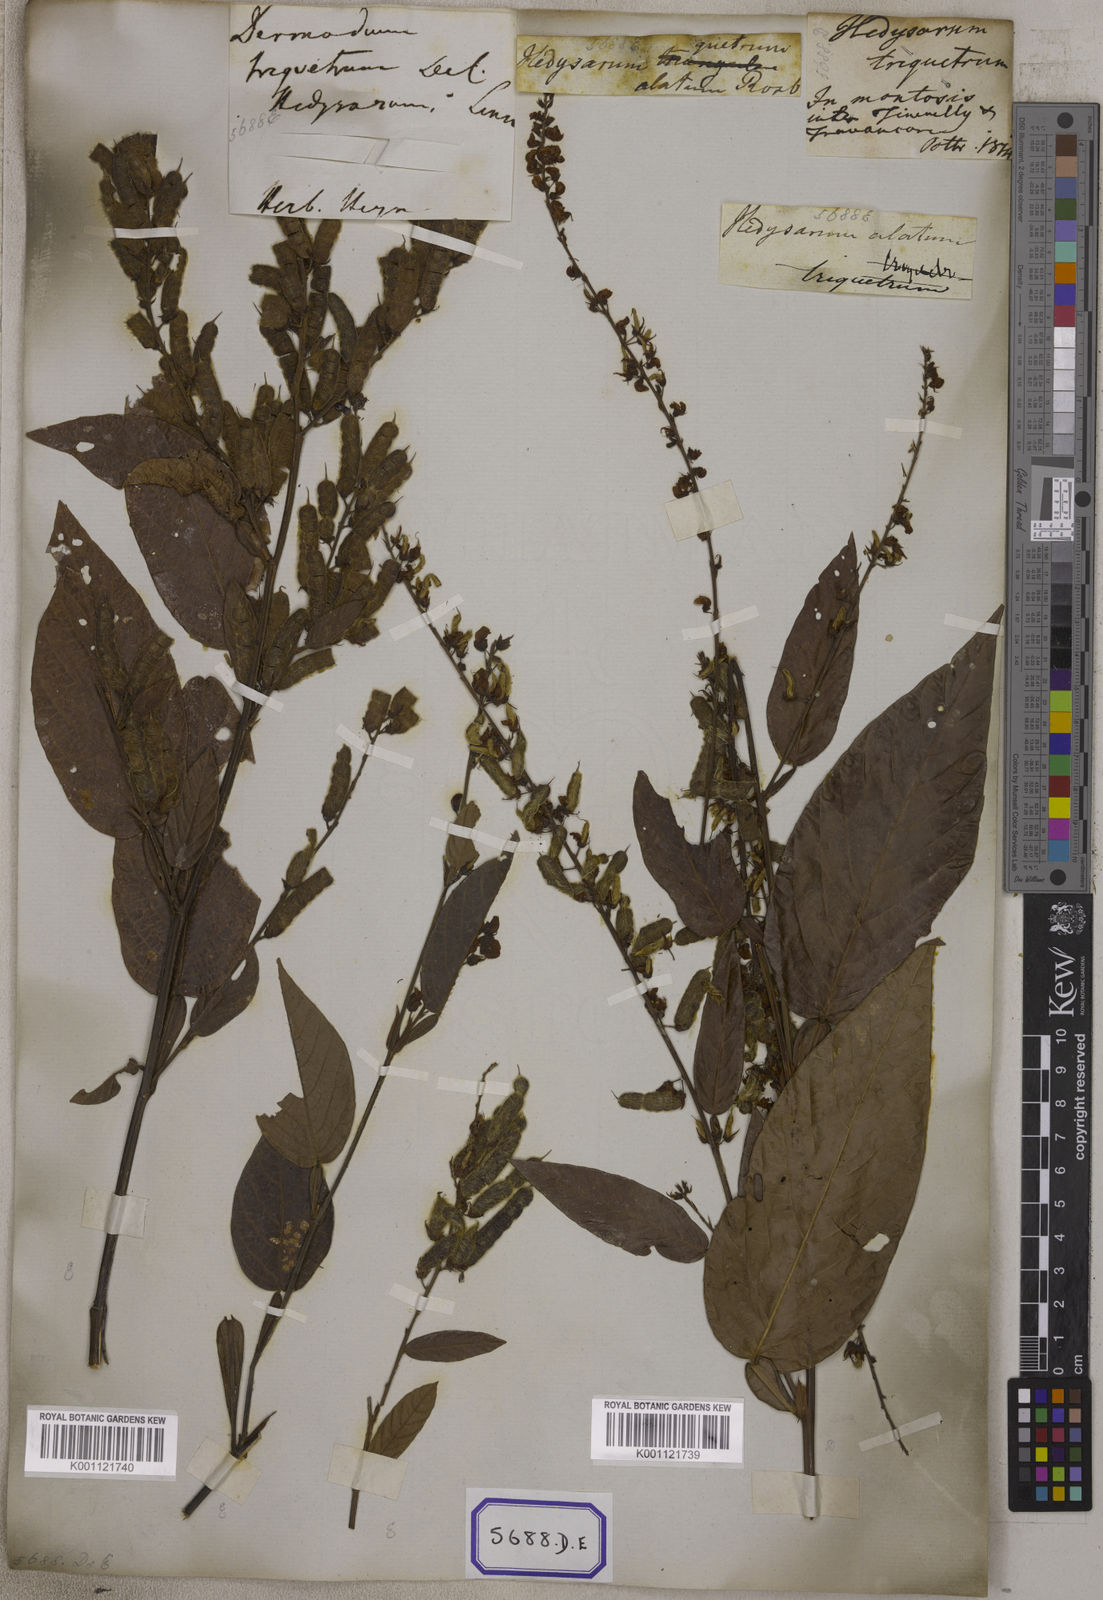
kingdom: Plantae
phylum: Tracheophyta
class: Magnoliopsida
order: Fabales
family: Fabaceae
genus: Tadehagi
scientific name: Tadehagi triquetrum
